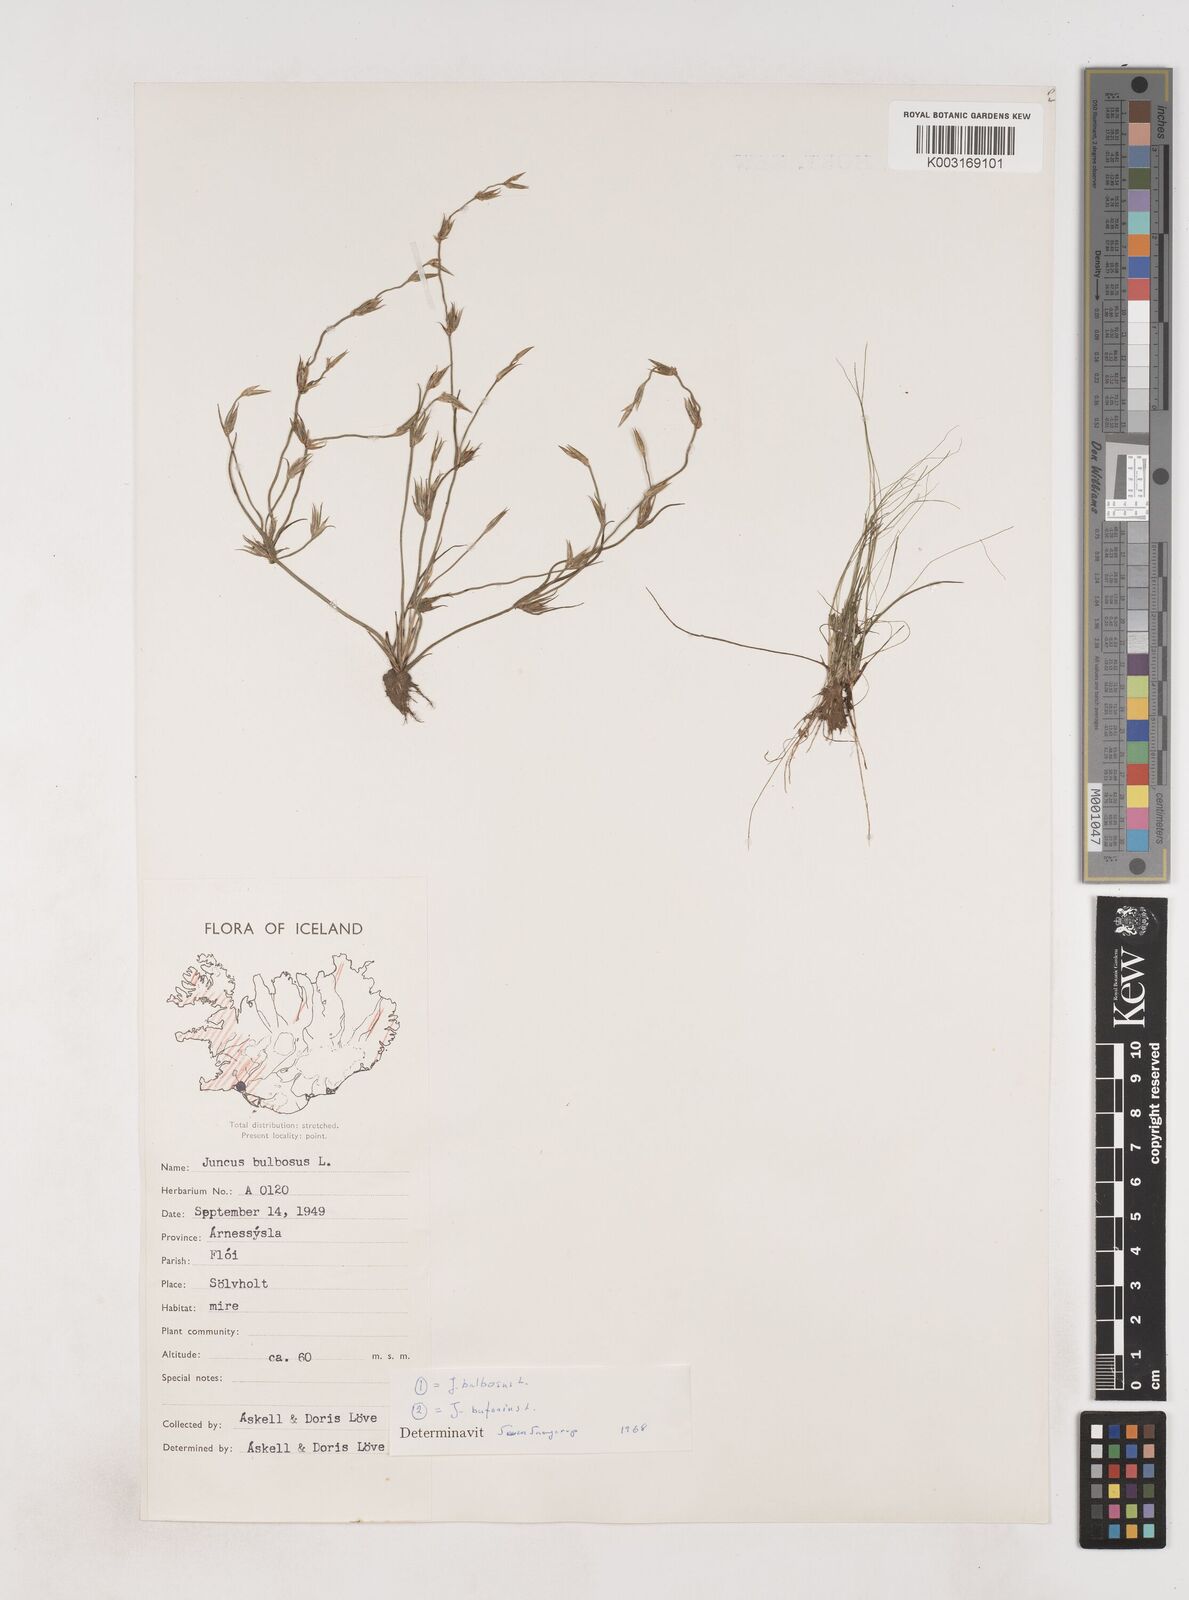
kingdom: Plantae
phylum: Tracheophyta
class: Liliopsida
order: Poales
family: Juncaceae
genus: Juncus
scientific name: Juncus bulbosus
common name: Bulbous rush
